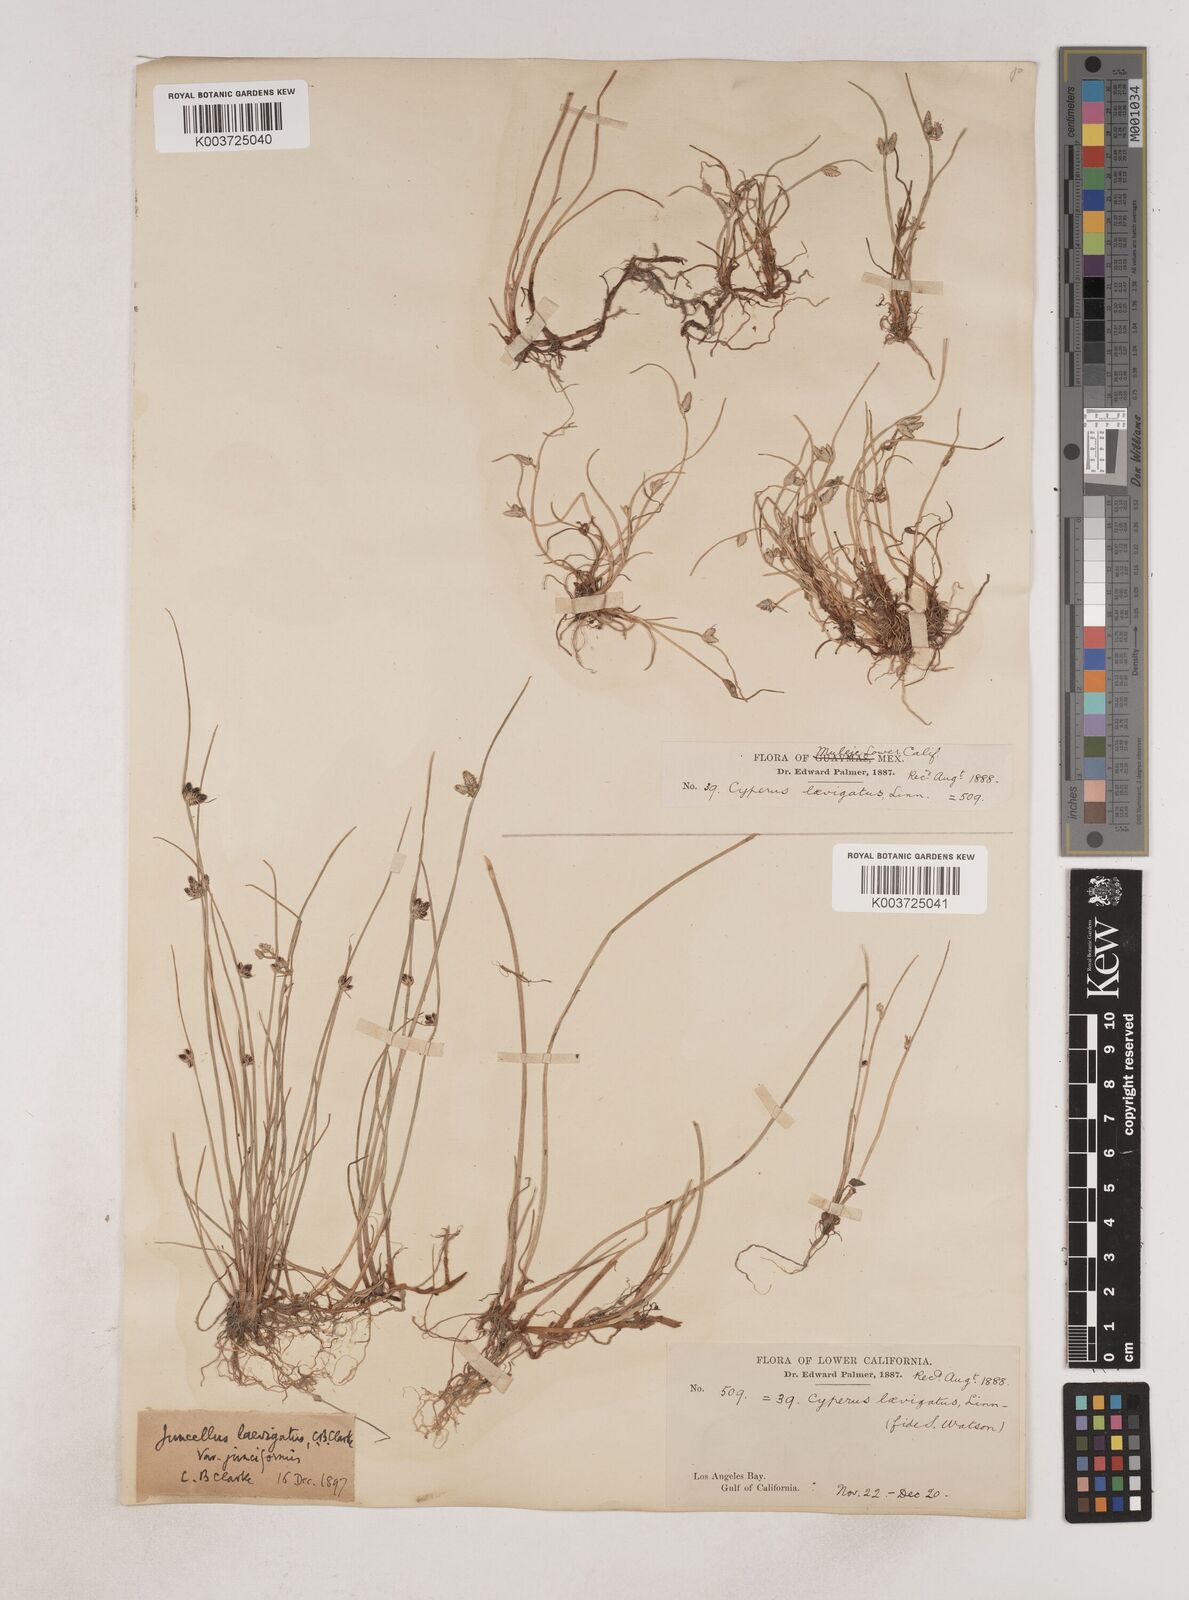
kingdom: Plantae
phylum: Tracheophyta
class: Liliopsida
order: Poales
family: Cyperaceae
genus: Cyperus
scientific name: Cyperus laevigatus
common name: Smooth flat sedge
